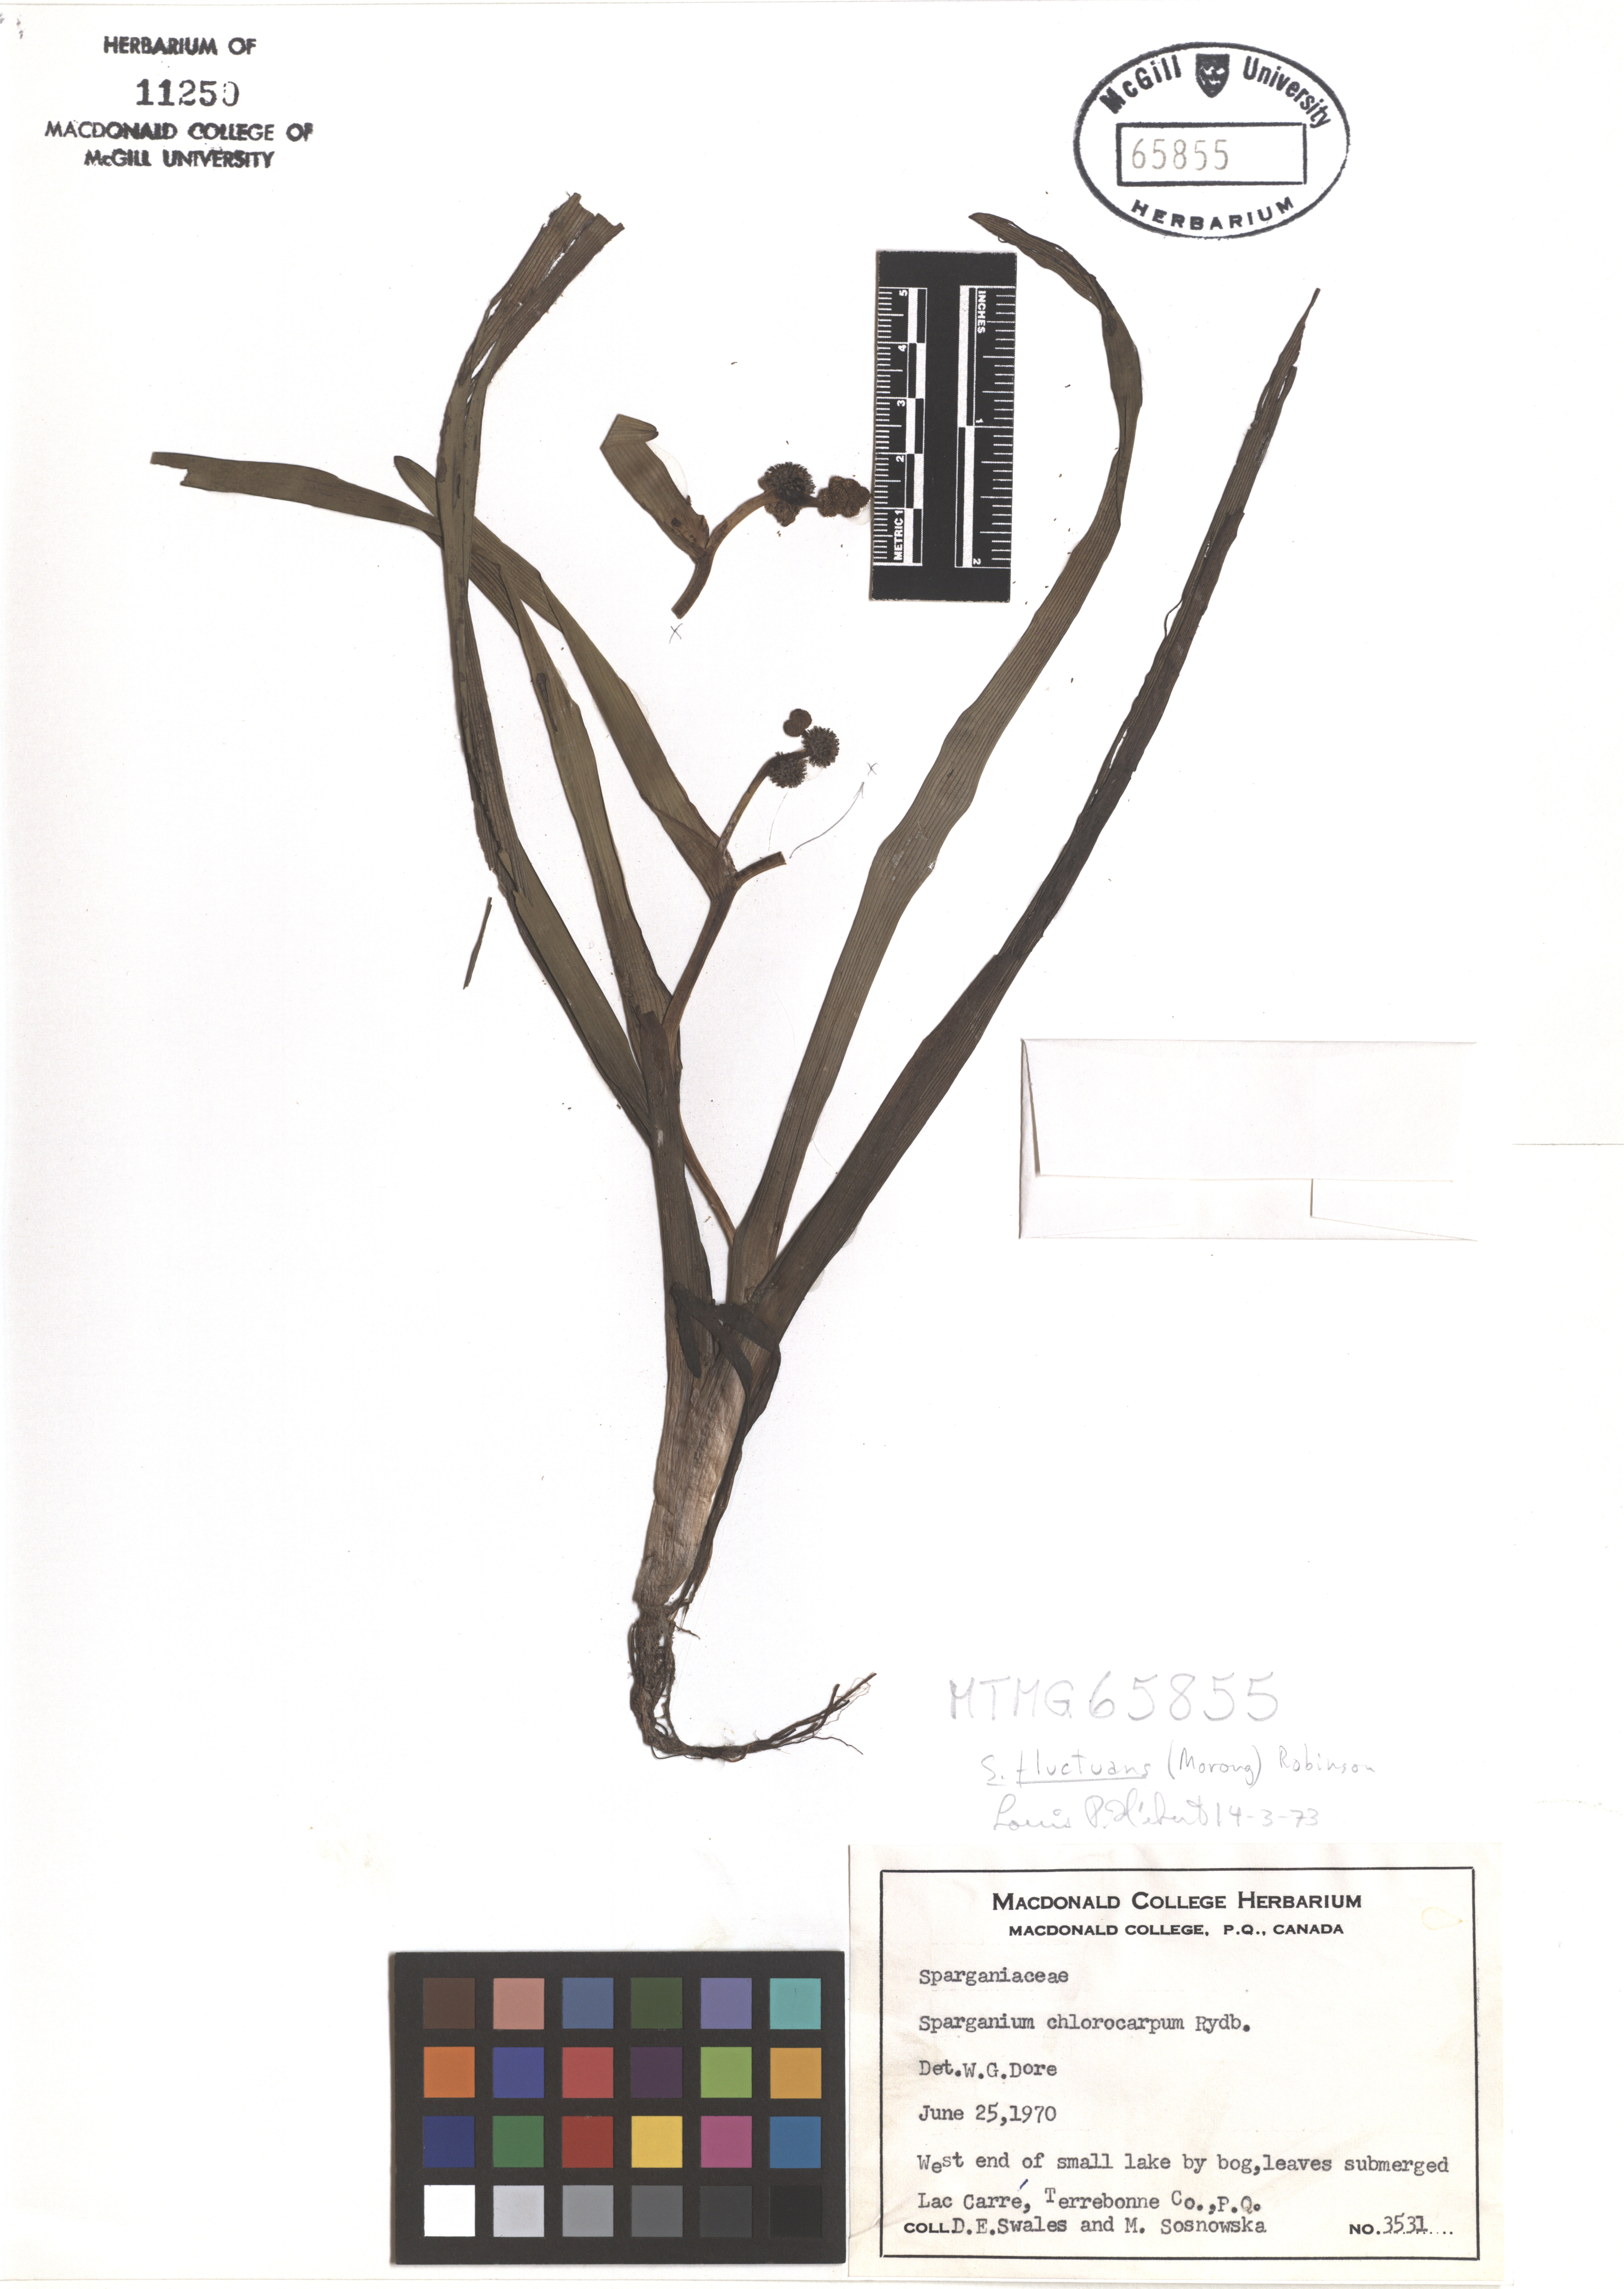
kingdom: Plantae
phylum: Tracheophyta
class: Liliopsida
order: Poales
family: Typhaceae
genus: Sparganium
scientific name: Sparganium fluctuans
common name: Floating burreed
